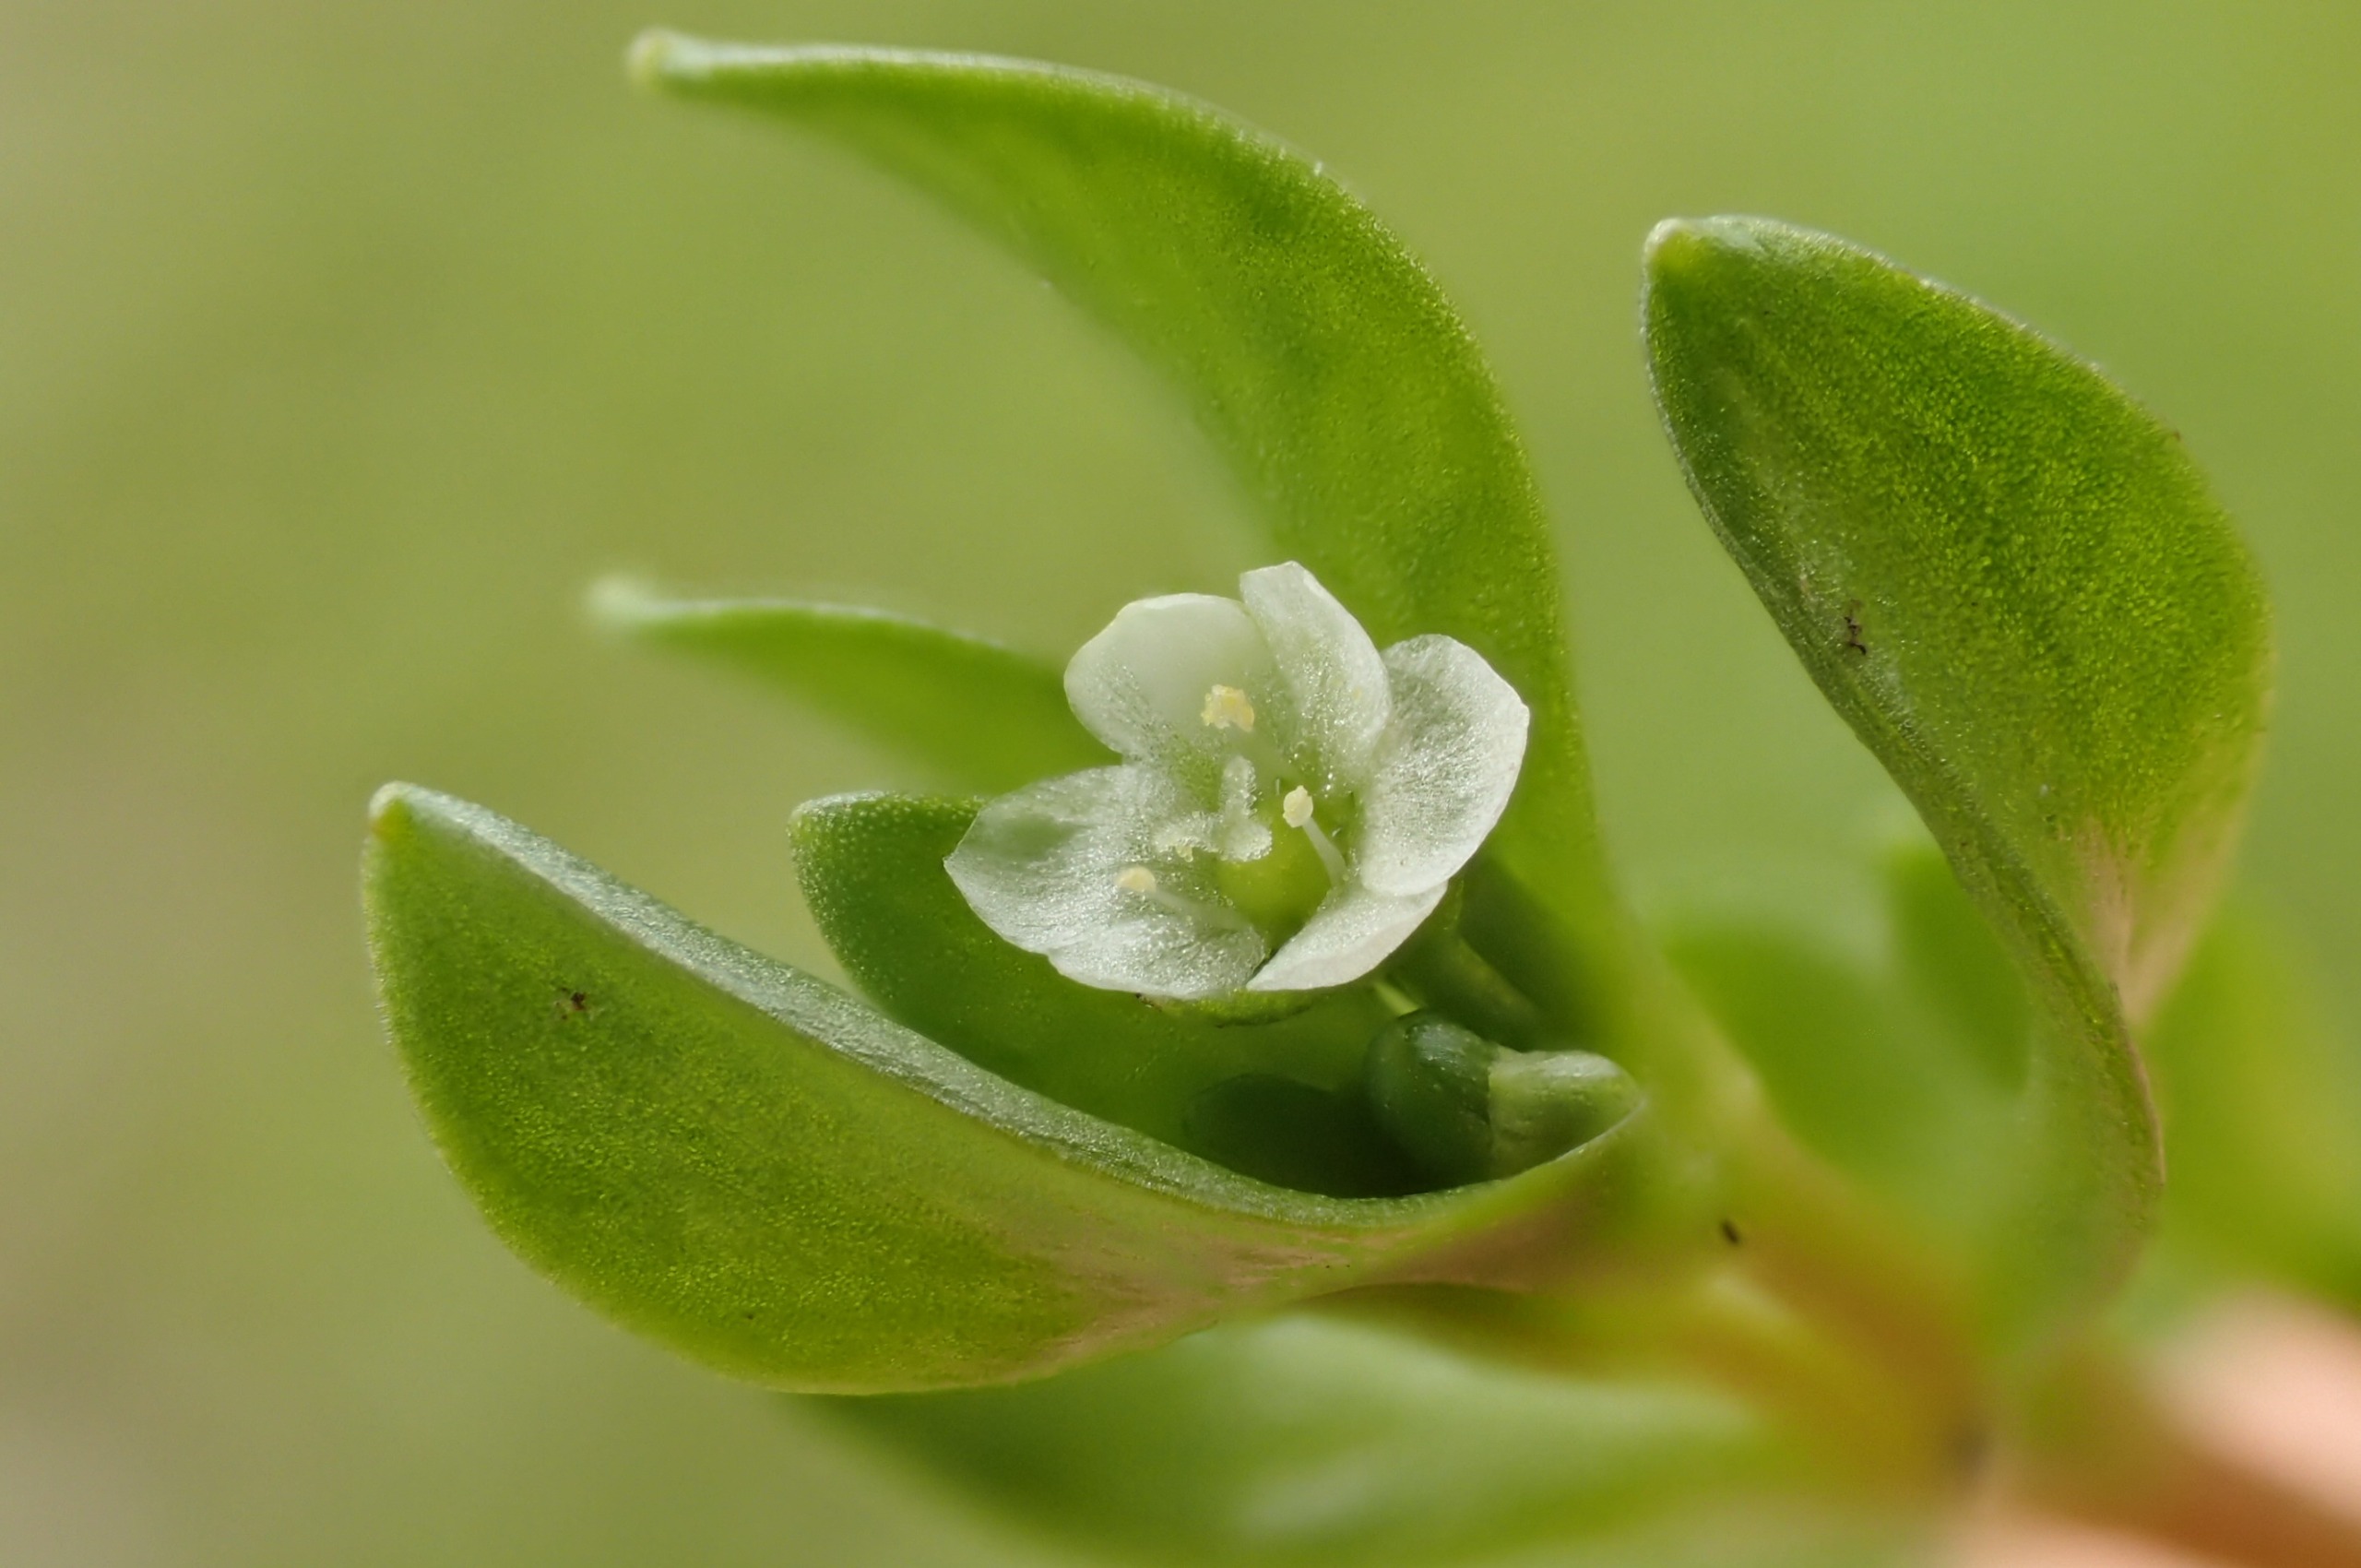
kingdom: Plantae
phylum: Tracheophyta
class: Magnoliopsida
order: Caryophyllales
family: Montiaceae
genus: Montia
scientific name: Montia fontana
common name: Stor vandarve
